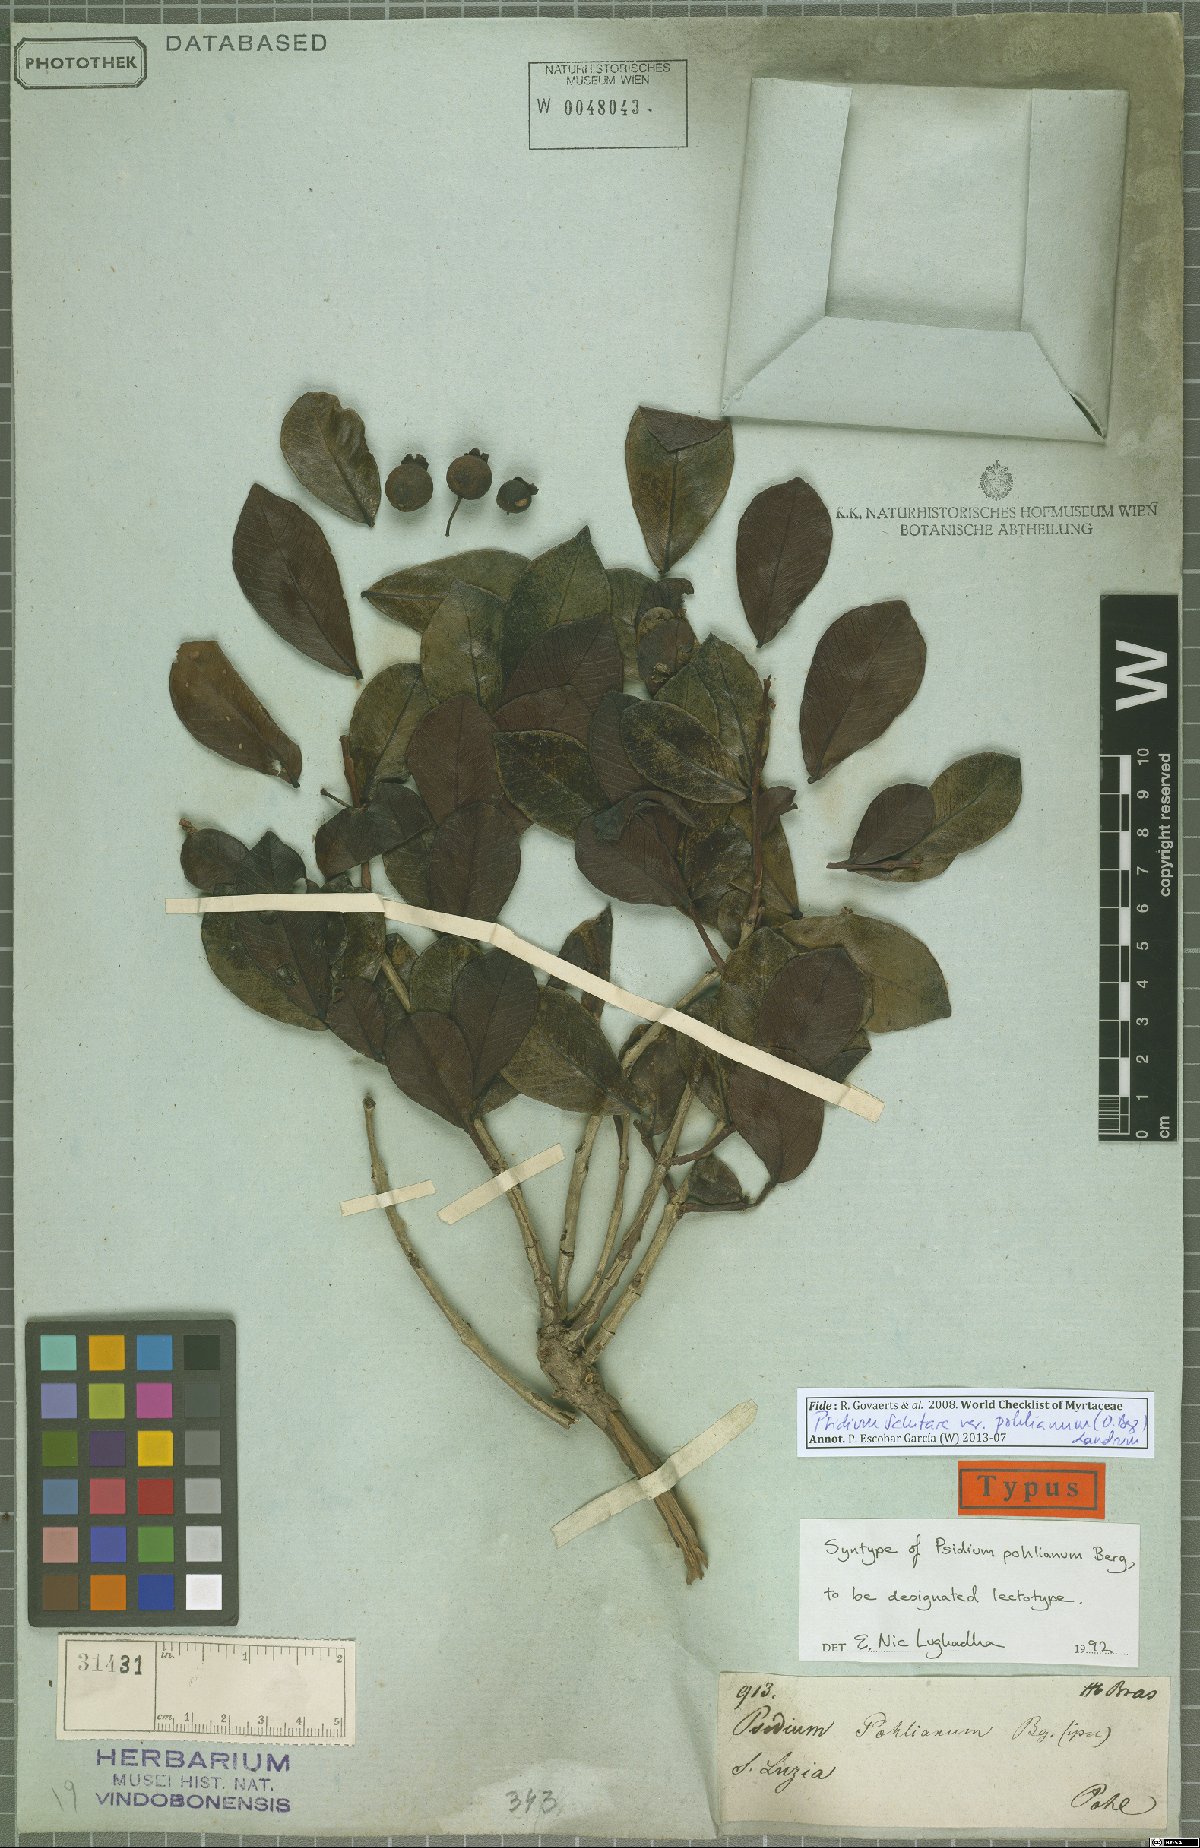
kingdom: Plantae
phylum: Tracheophyta
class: Magnoliopsida
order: Myrtales
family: Myrtaceae
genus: Psidium
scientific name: Psidium salutare
